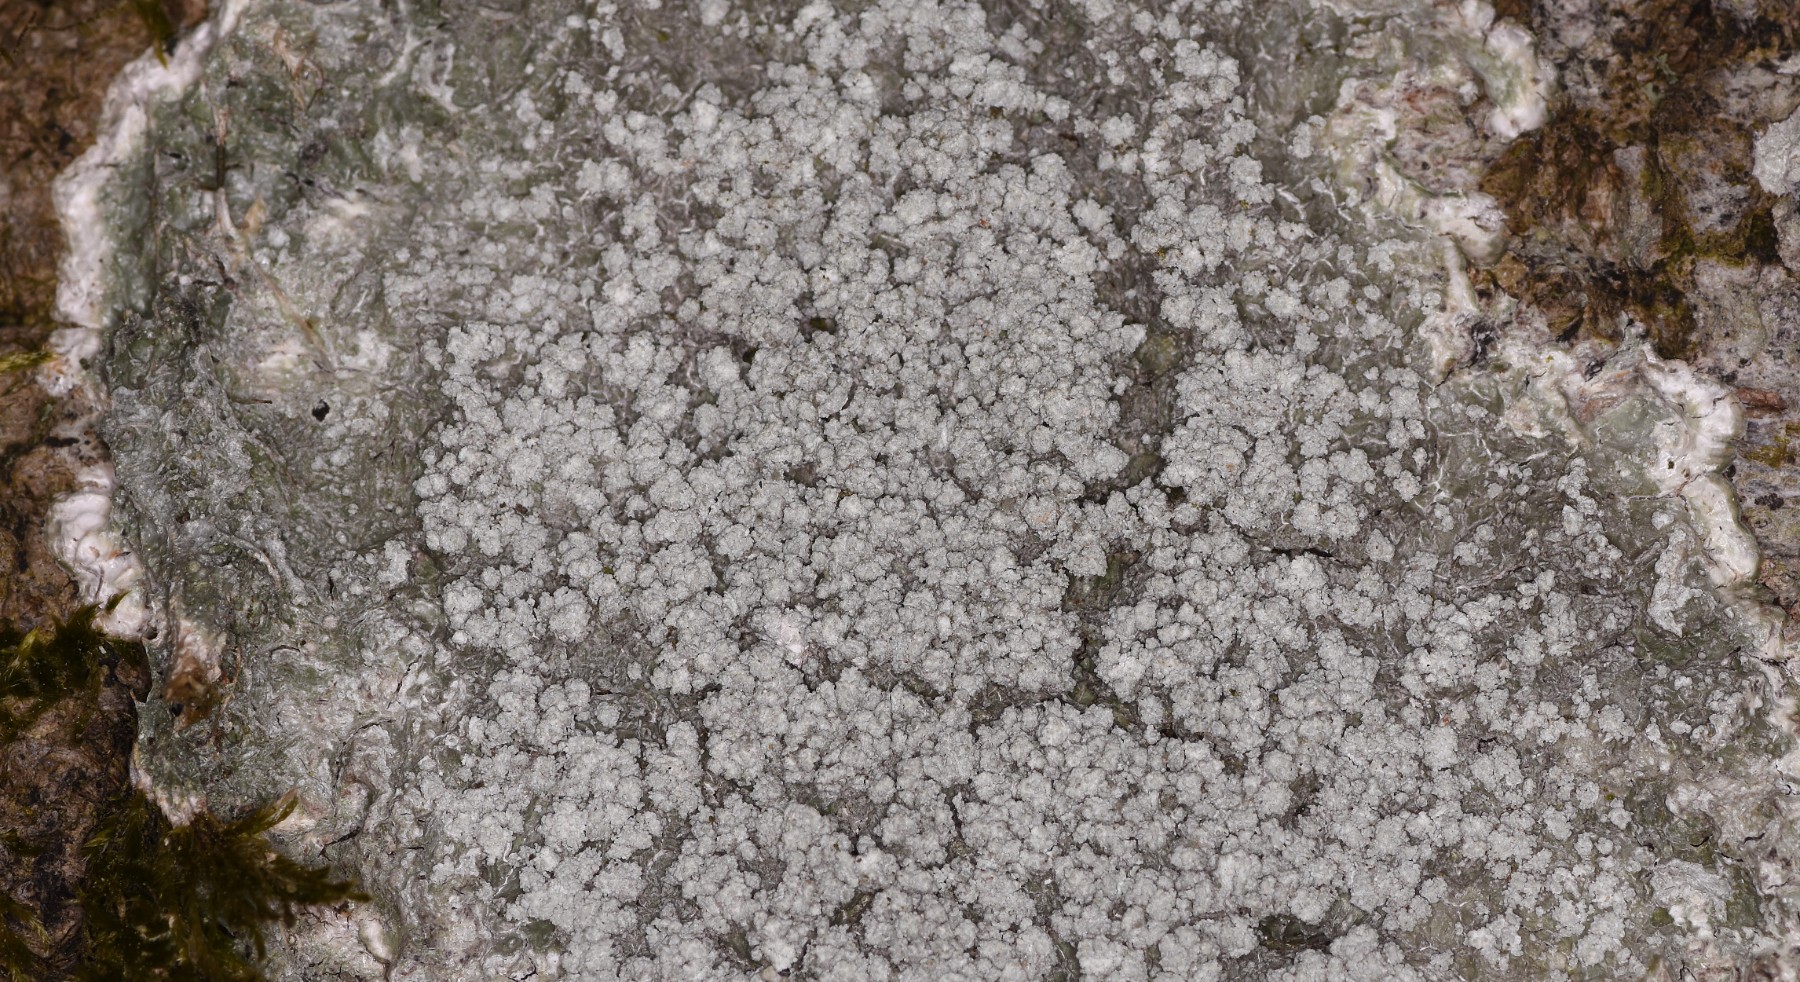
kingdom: Fungi
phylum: Ascomycota
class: Lecanoromycetes
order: Pertusariales
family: Pertusariaceae
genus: Lepra
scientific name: Lepra albescens
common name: hvidmelet prikvortelav
